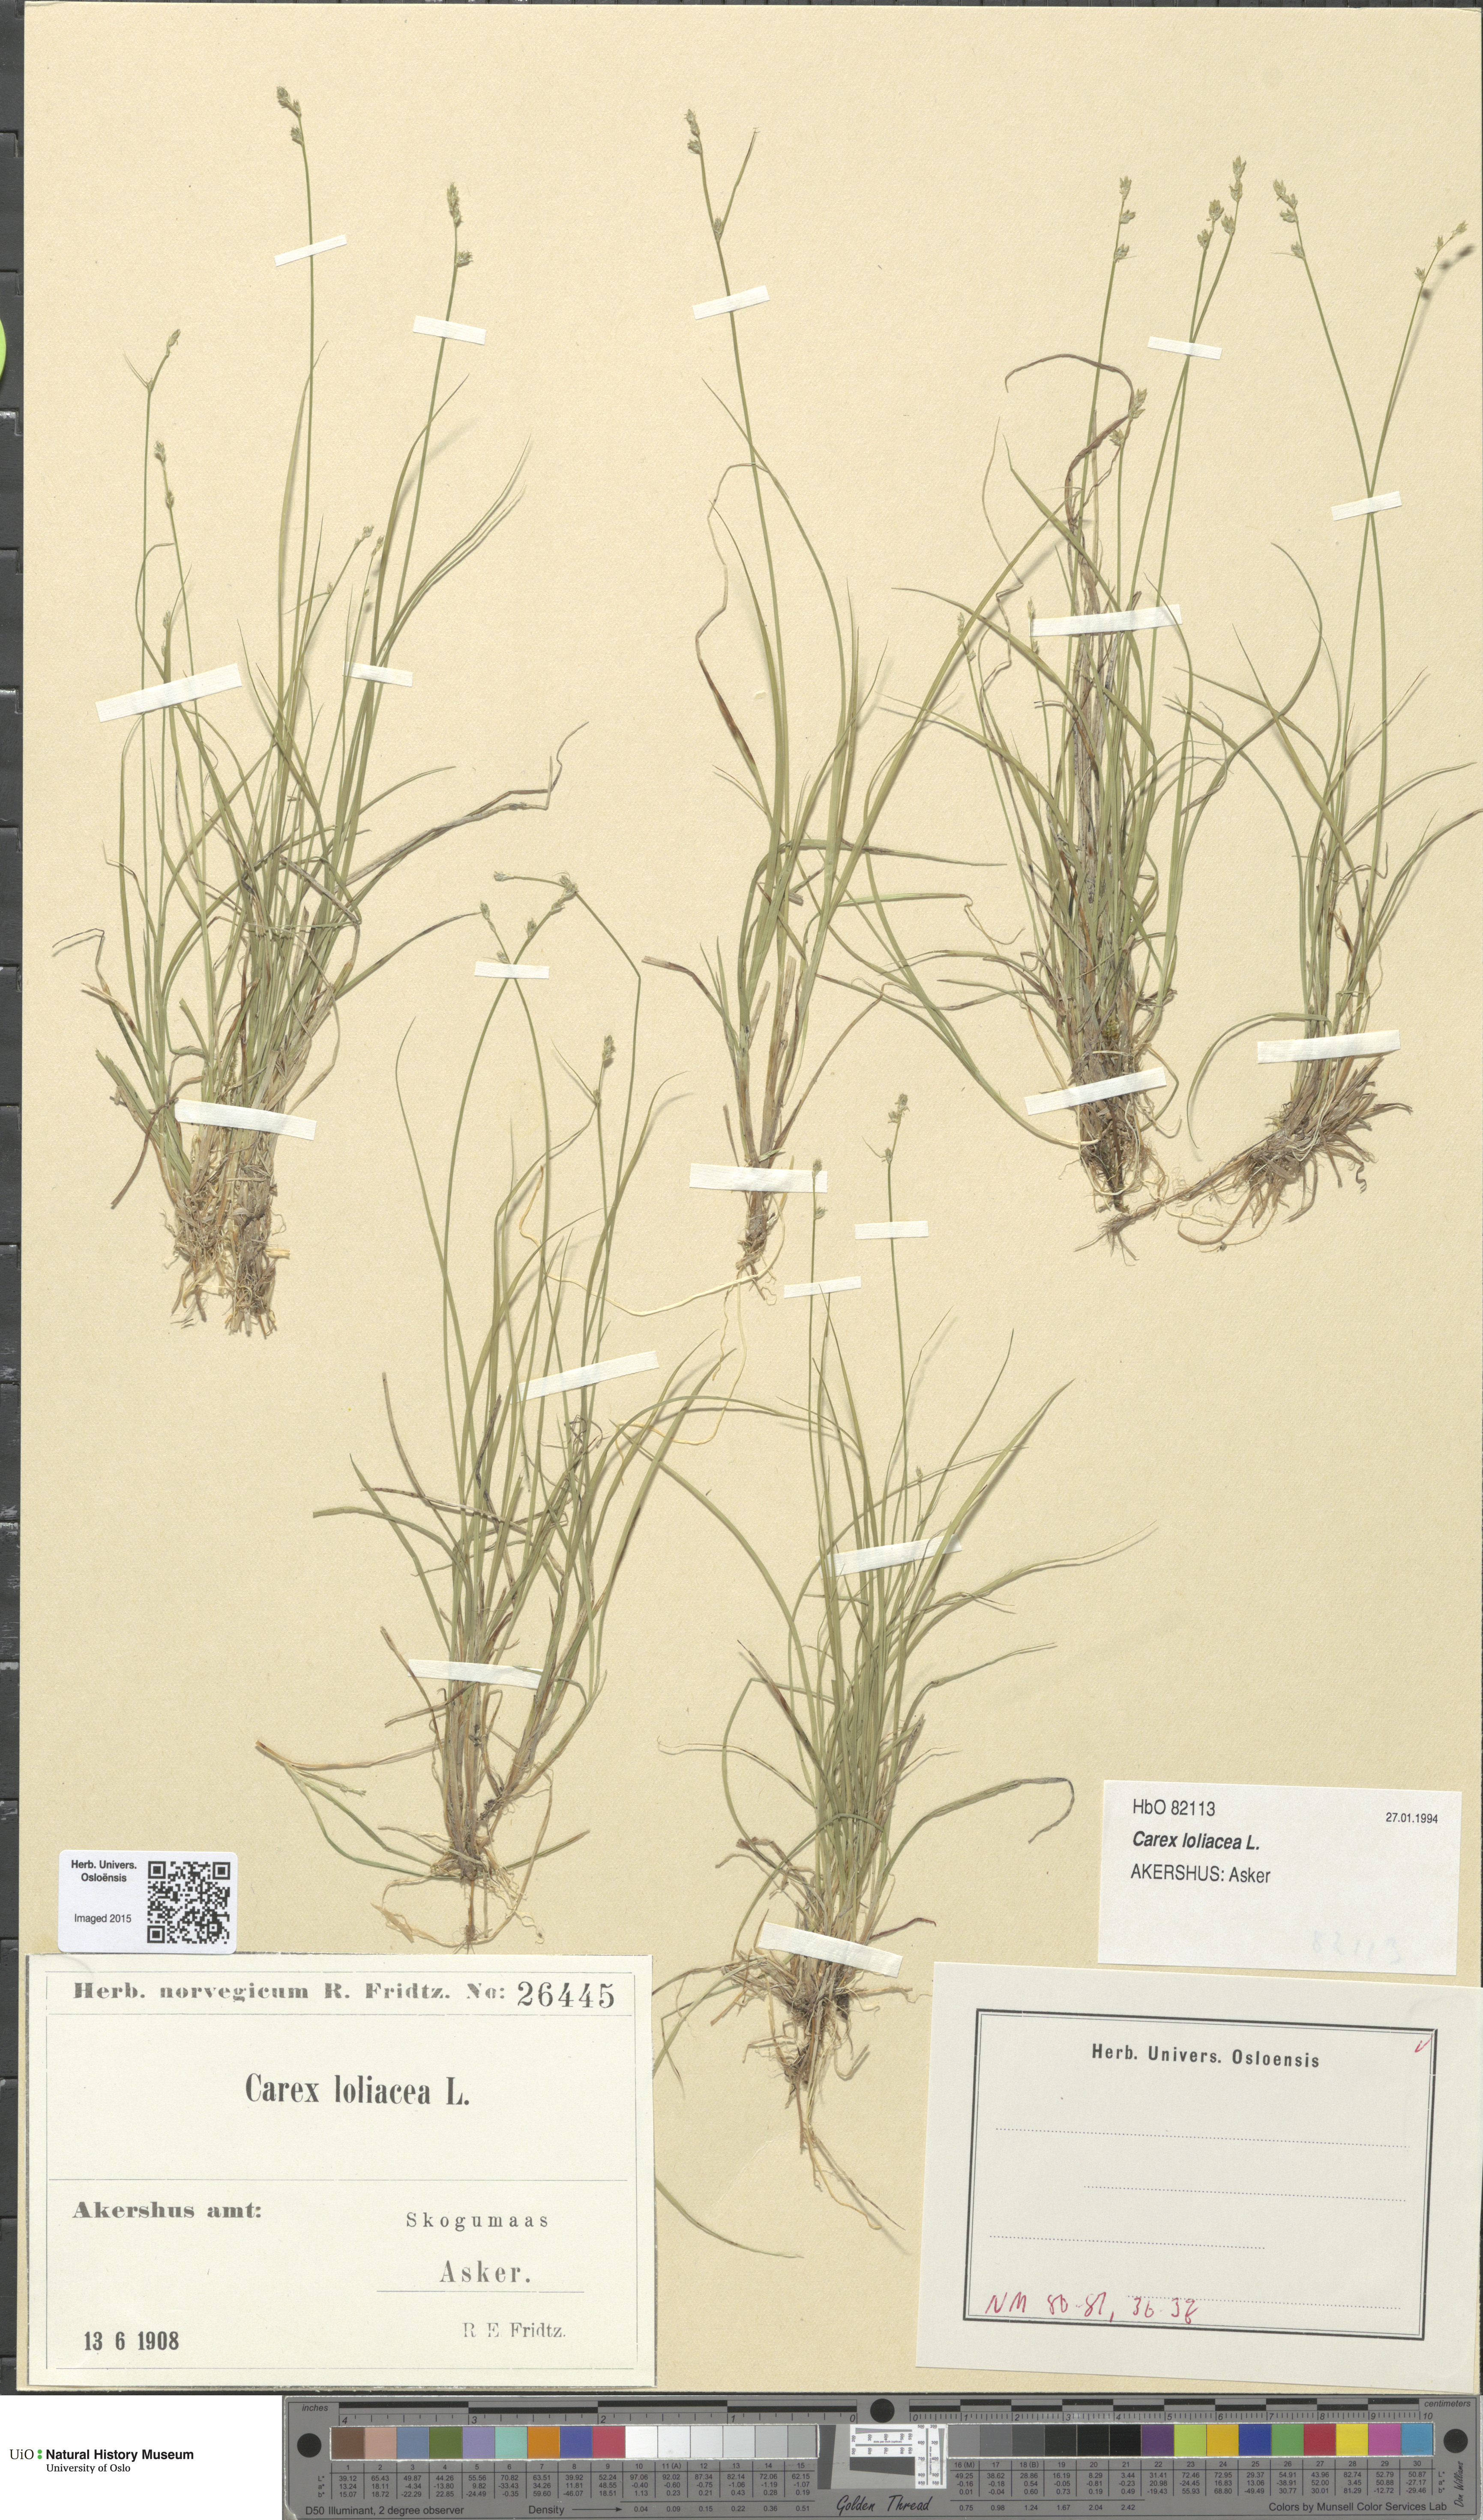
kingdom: Plantae
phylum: Tracheophyta
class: Liliopsida
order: Poales
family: Cyperaceae
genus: Carex
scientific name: Carex loliacea
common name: Ryegrass sedge
